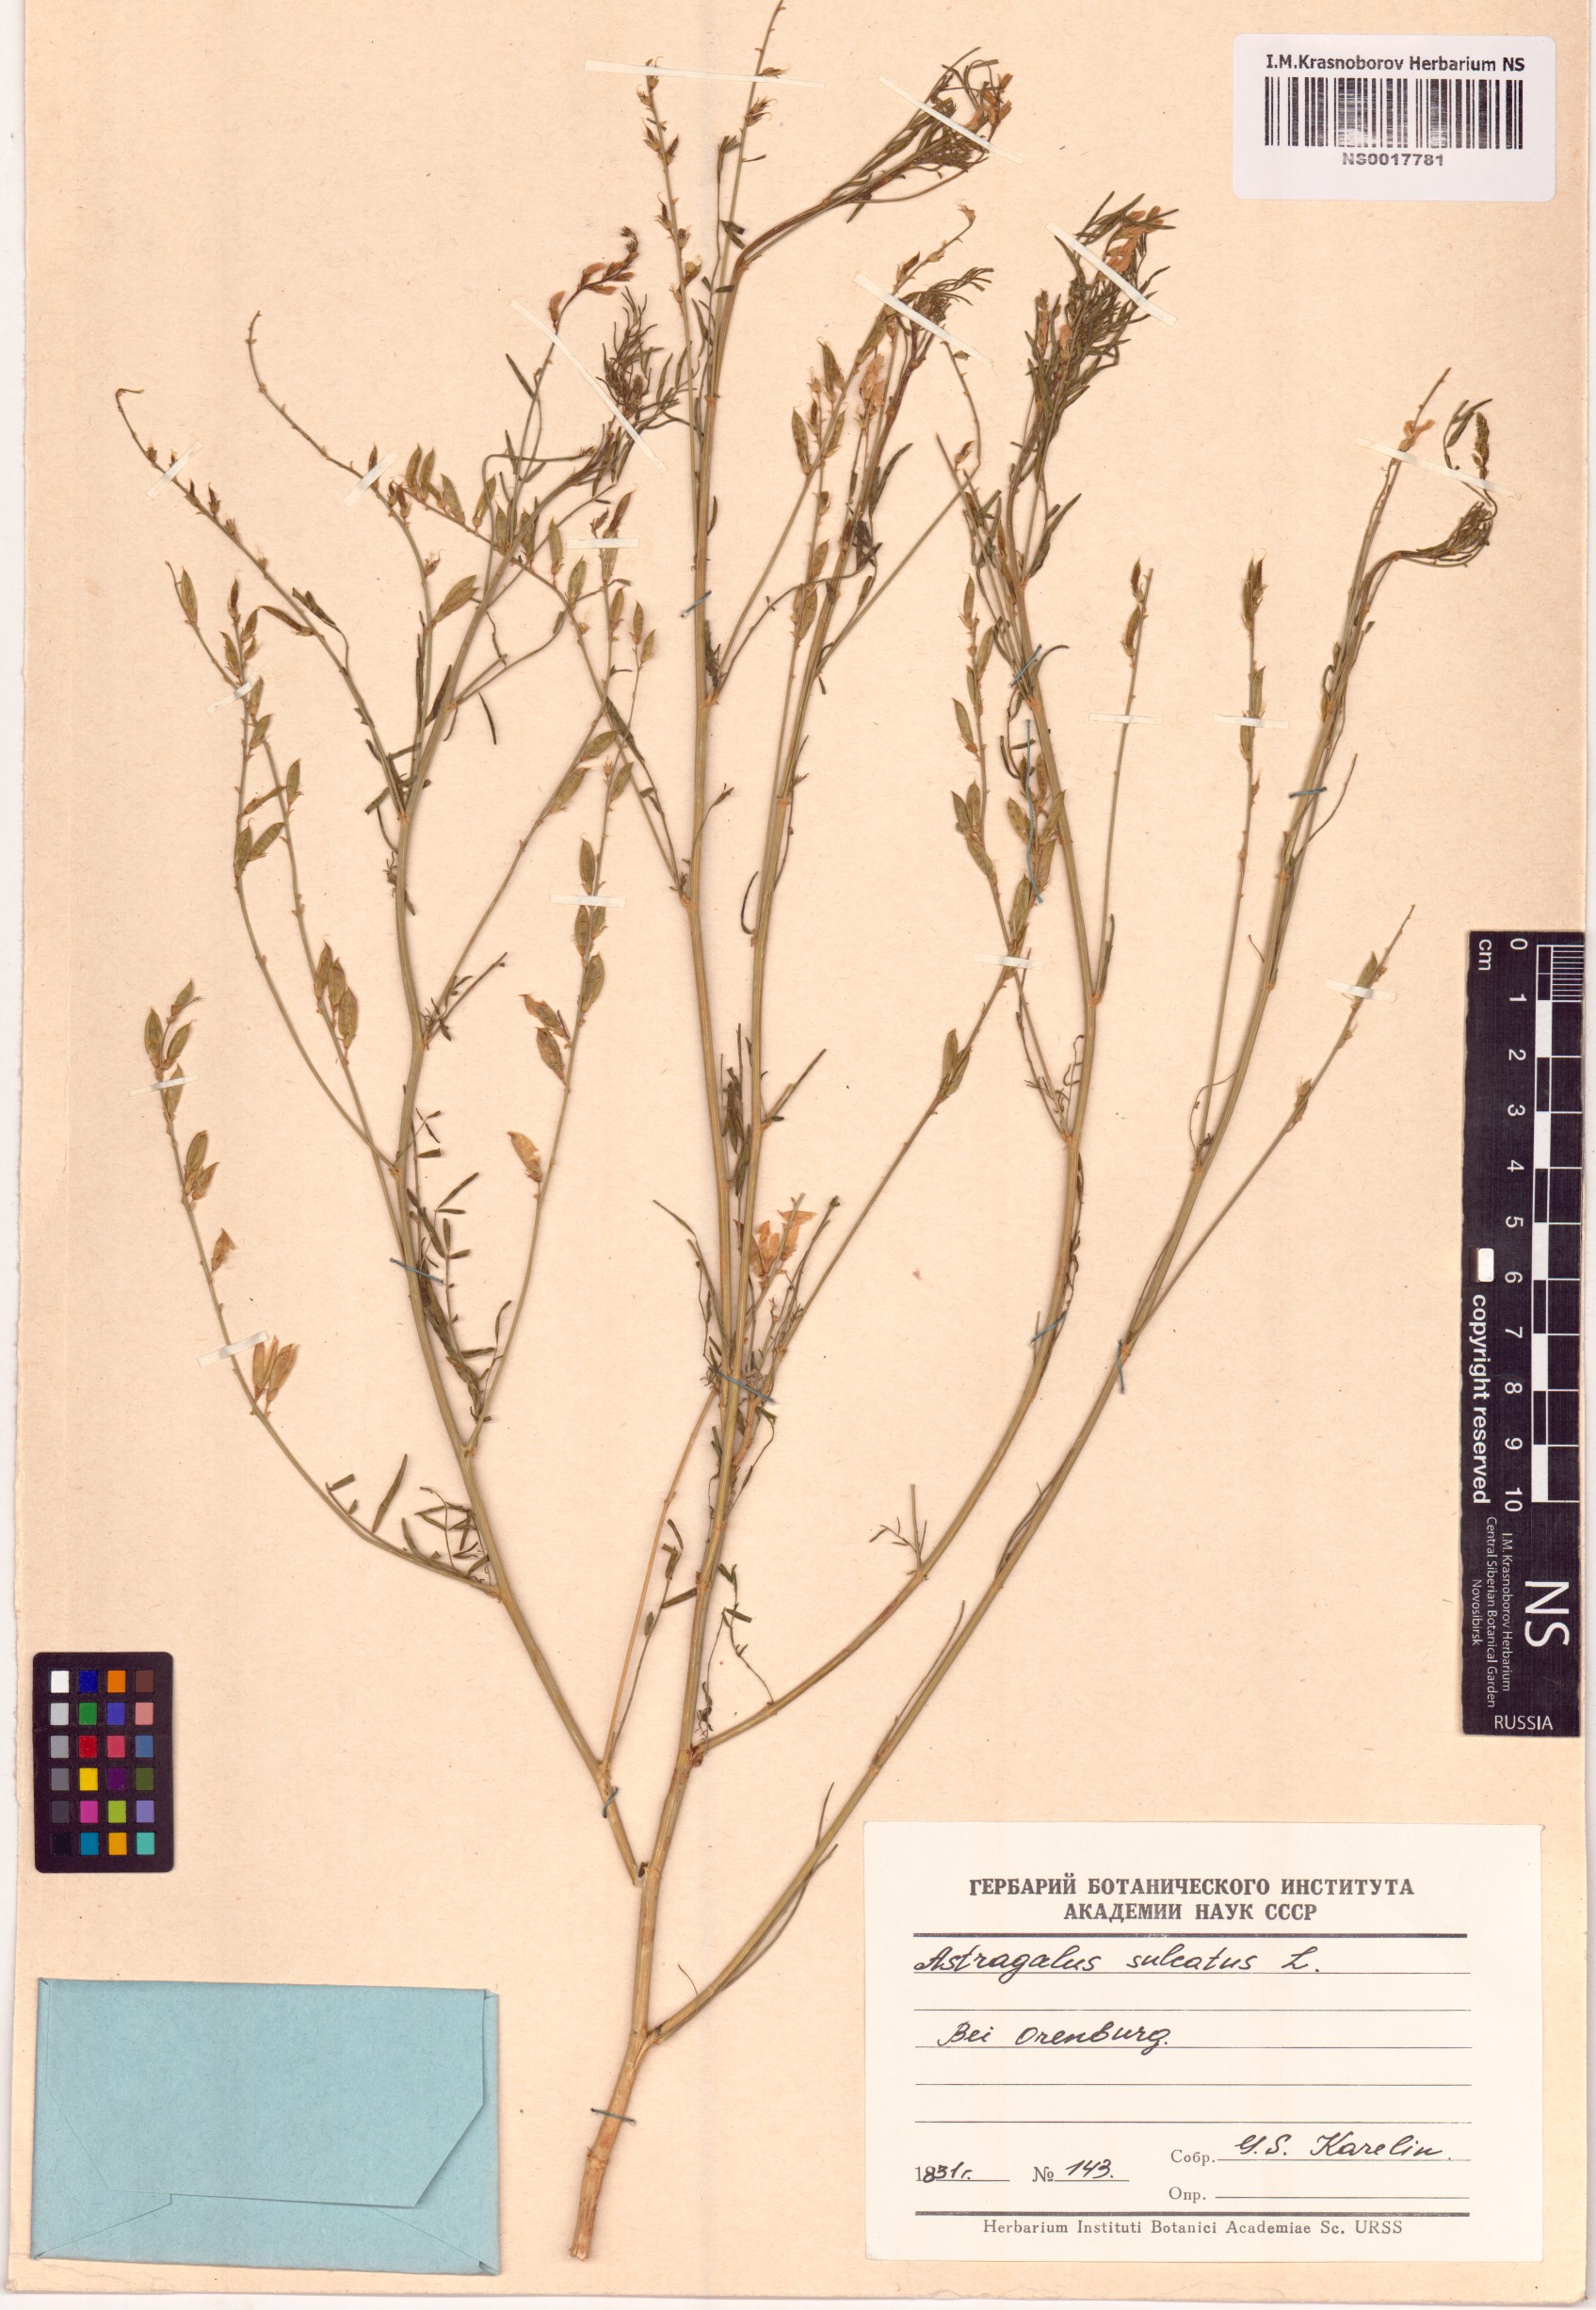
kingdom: Plantae
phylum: Tracheophyta
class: Magnoliopsida
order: Fabales
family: Fabaceae
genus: Astragalus
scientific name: Astragalus sulcatus
